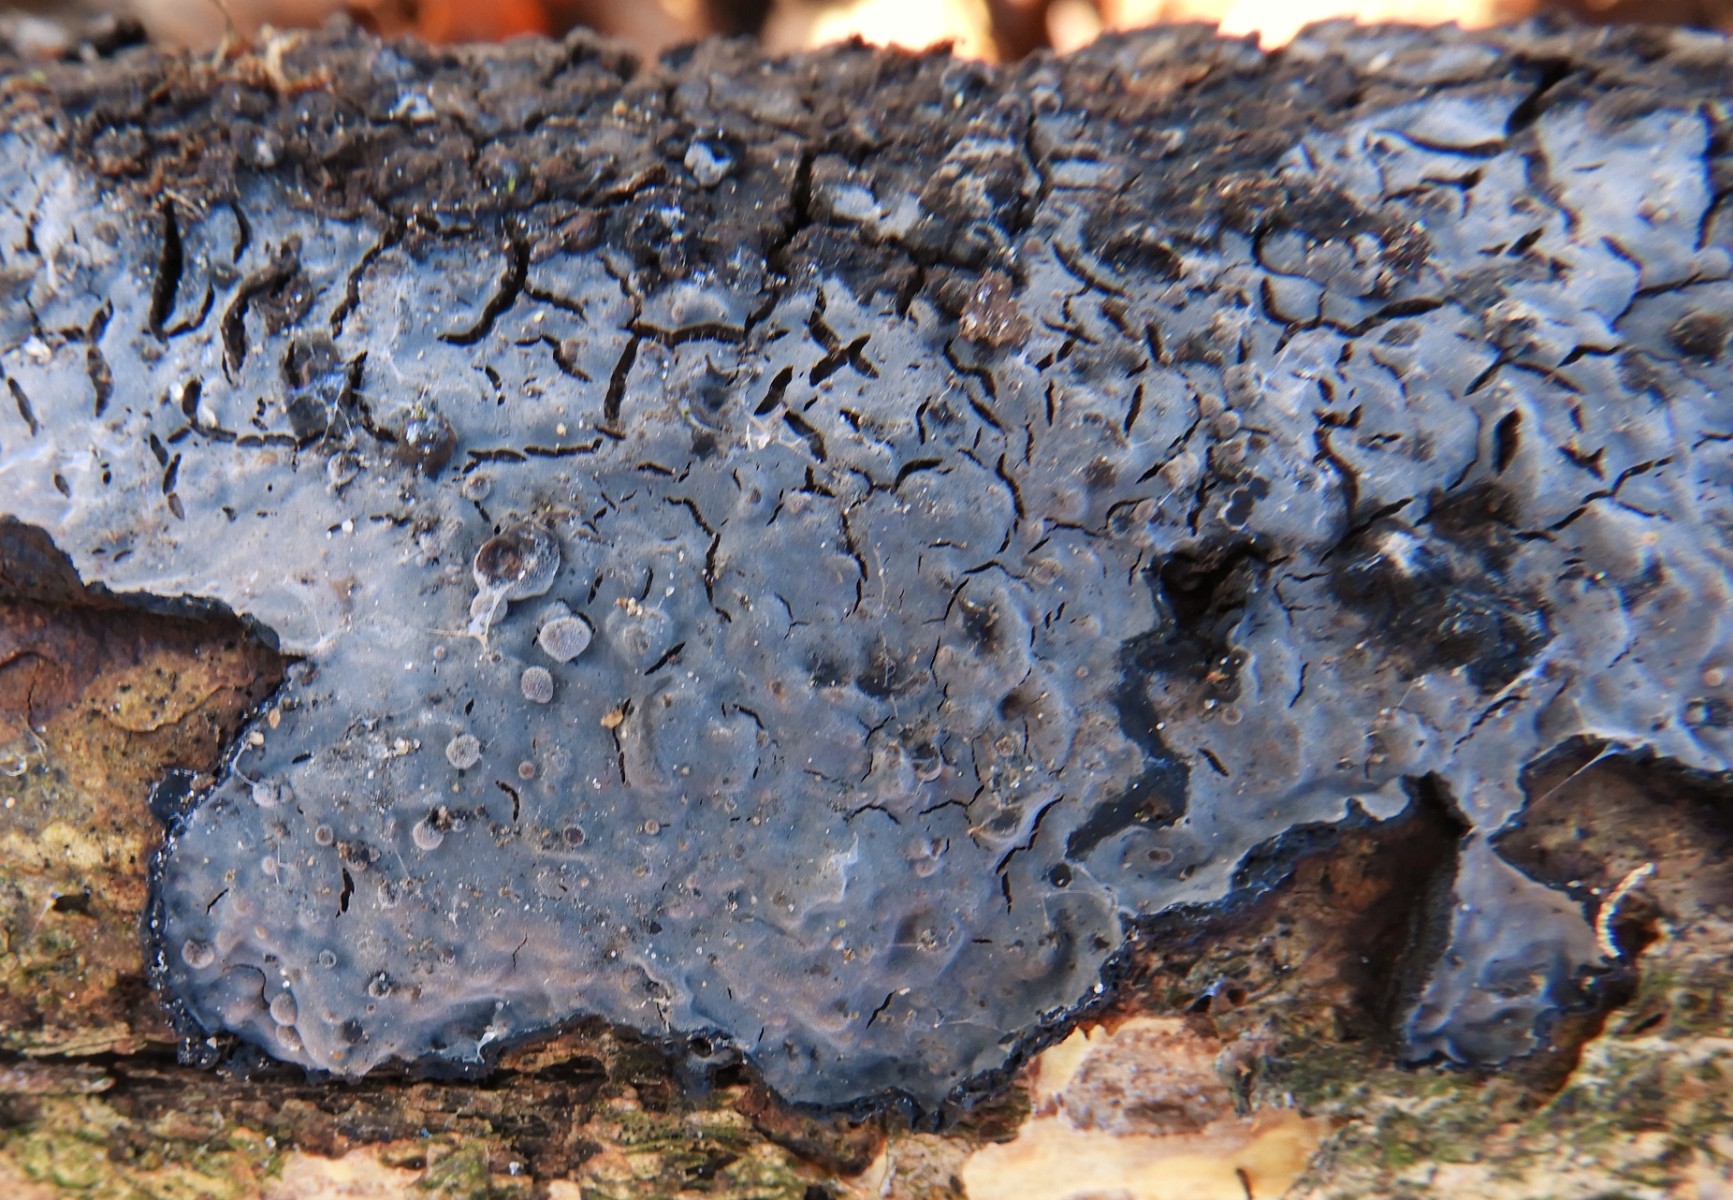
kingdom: Fungi
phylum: Basidiomycota
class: Agaricomycetes
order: Russulales
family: Peniophoraceae
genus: Peniophora
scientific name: Peniophora quercina
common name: ege-voksskind
